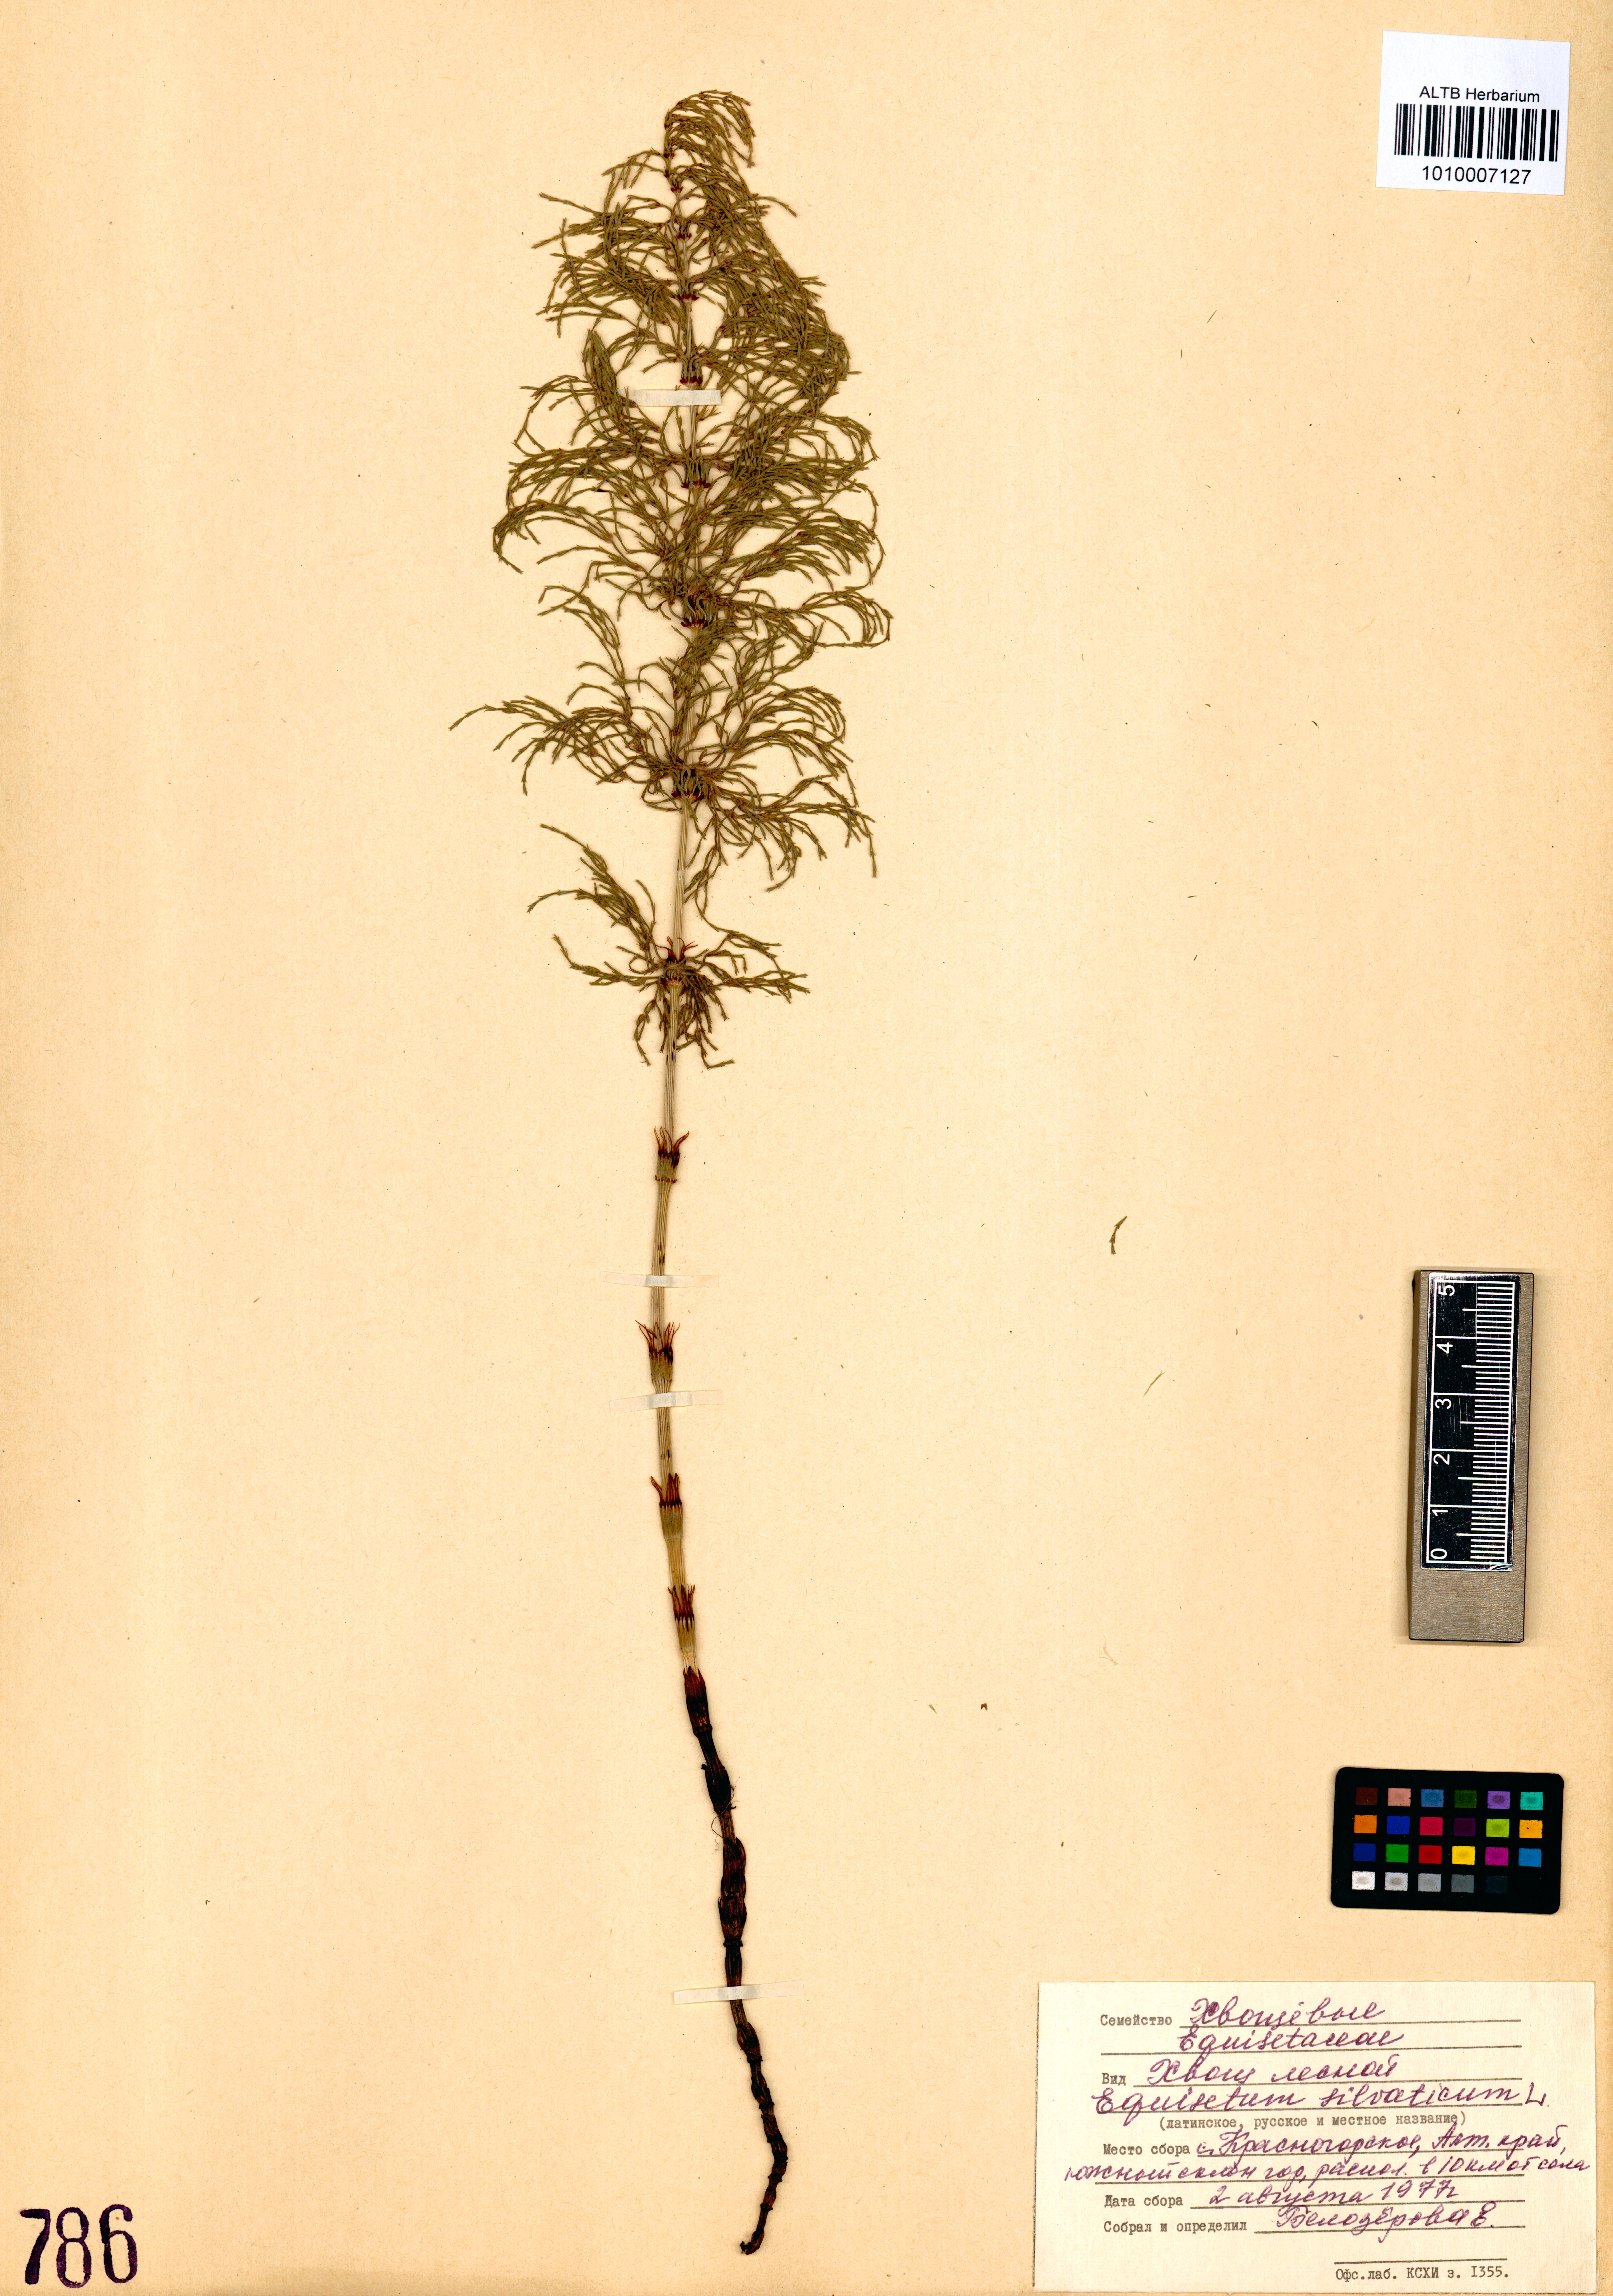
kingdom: Plantae
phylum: Tracheophyta
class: Polypodiopsida
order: Equisetales
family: Equisetaceae
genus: Equisetum
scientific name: Equisetum sylvaticum
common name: Wood horsetail
